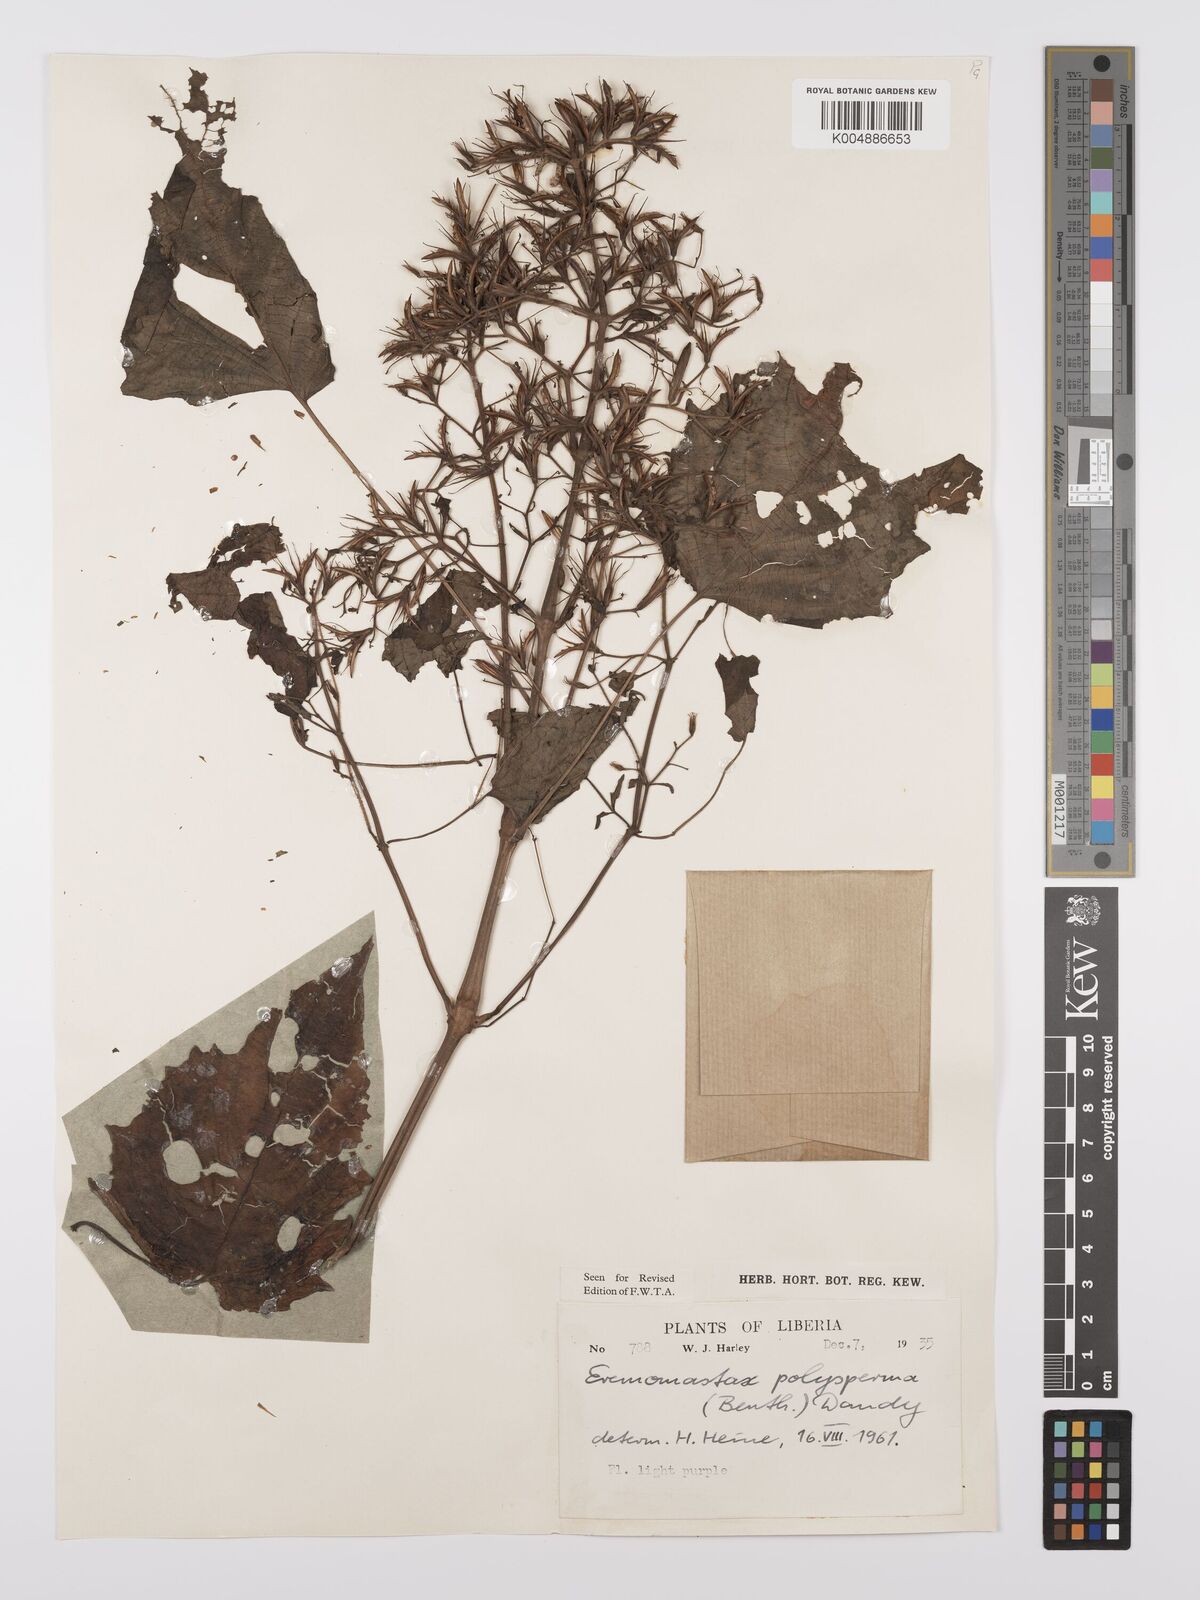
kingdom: Plantae
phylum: Tracheophyta
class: Magnoliopsida
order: Lamiales
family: Acanthaceae
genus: Eremomastax
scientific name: Eremomastax speciosa
